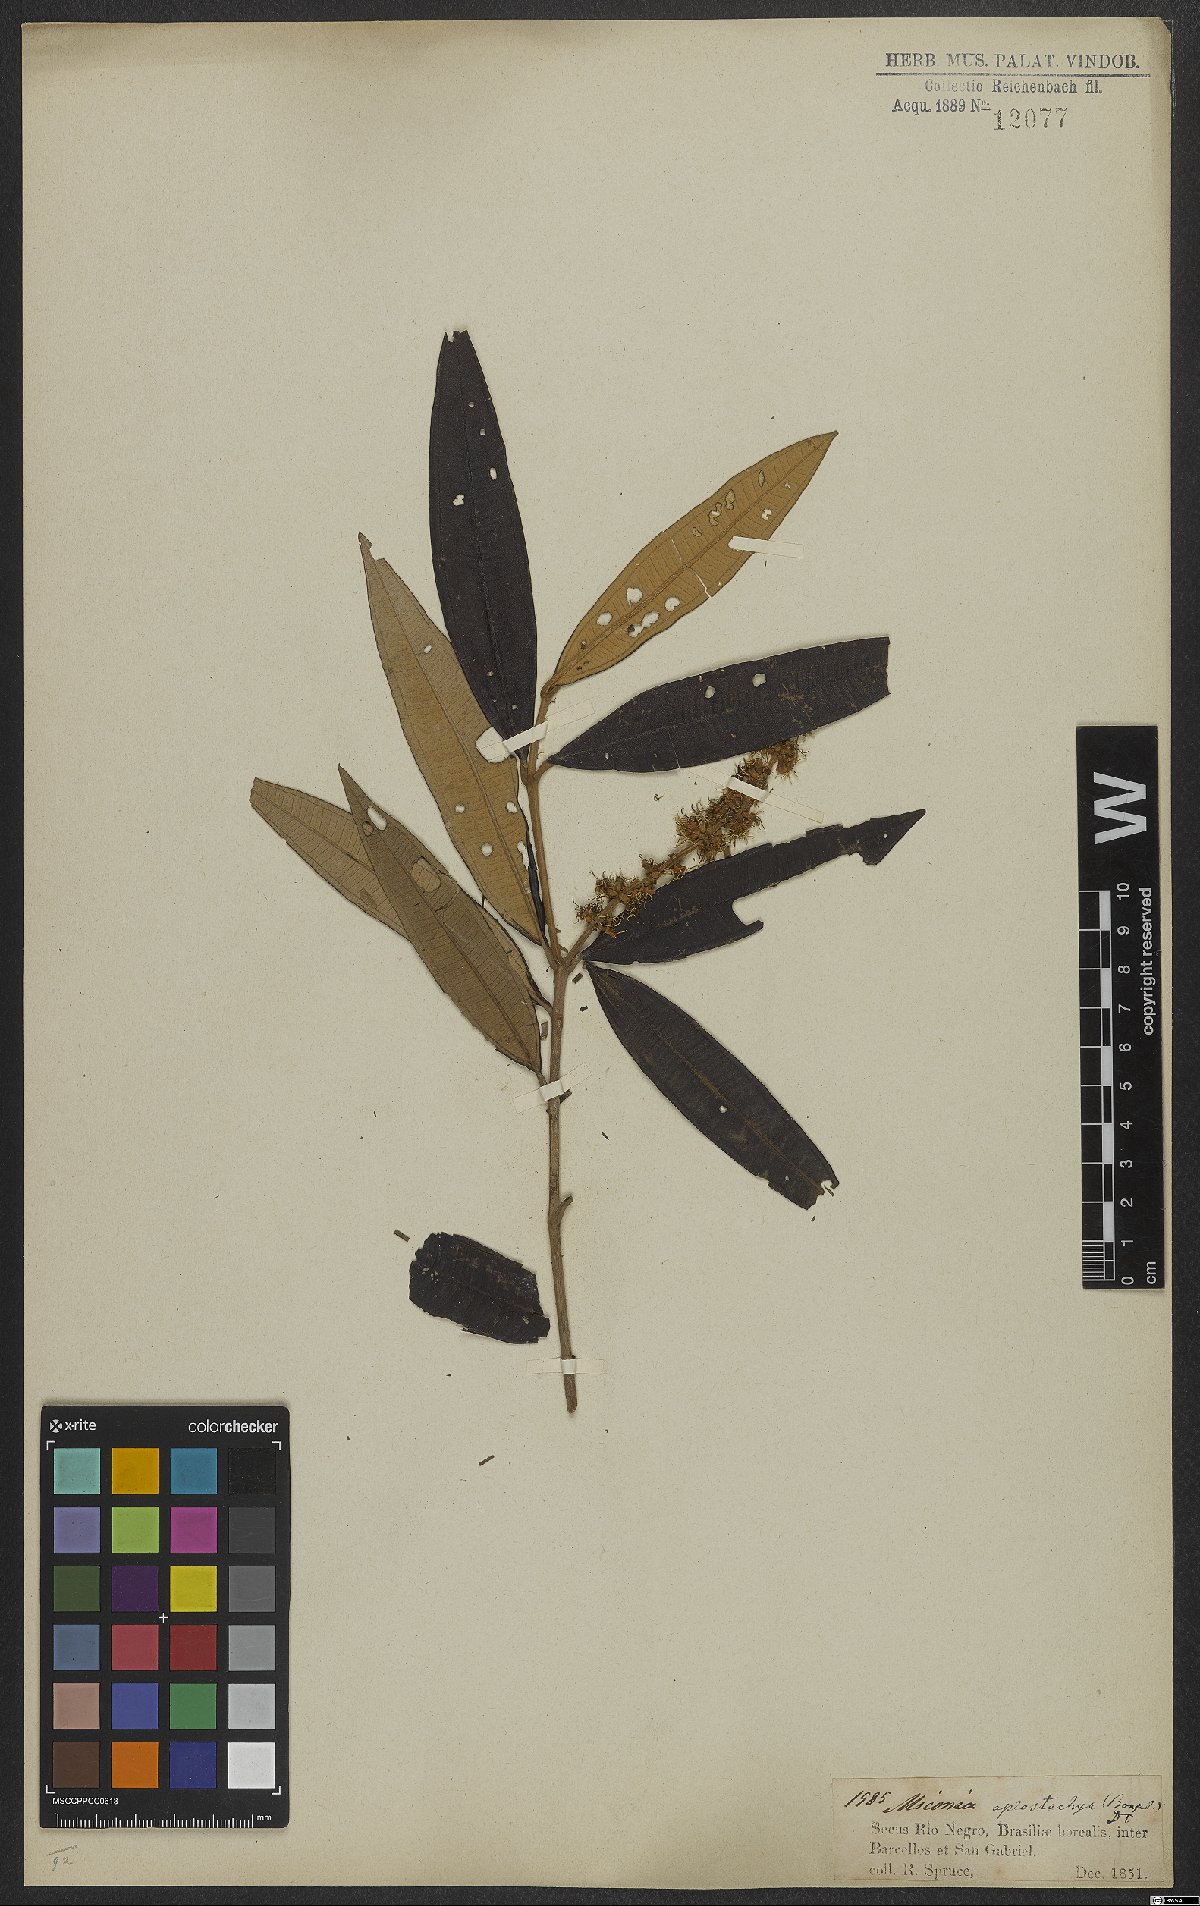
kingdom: Plantae
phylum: Tracheophyta
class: Magnoliopsida
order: Myrtales
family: Melastomataceae
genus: Miconia
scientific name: Miconia aplostachya
